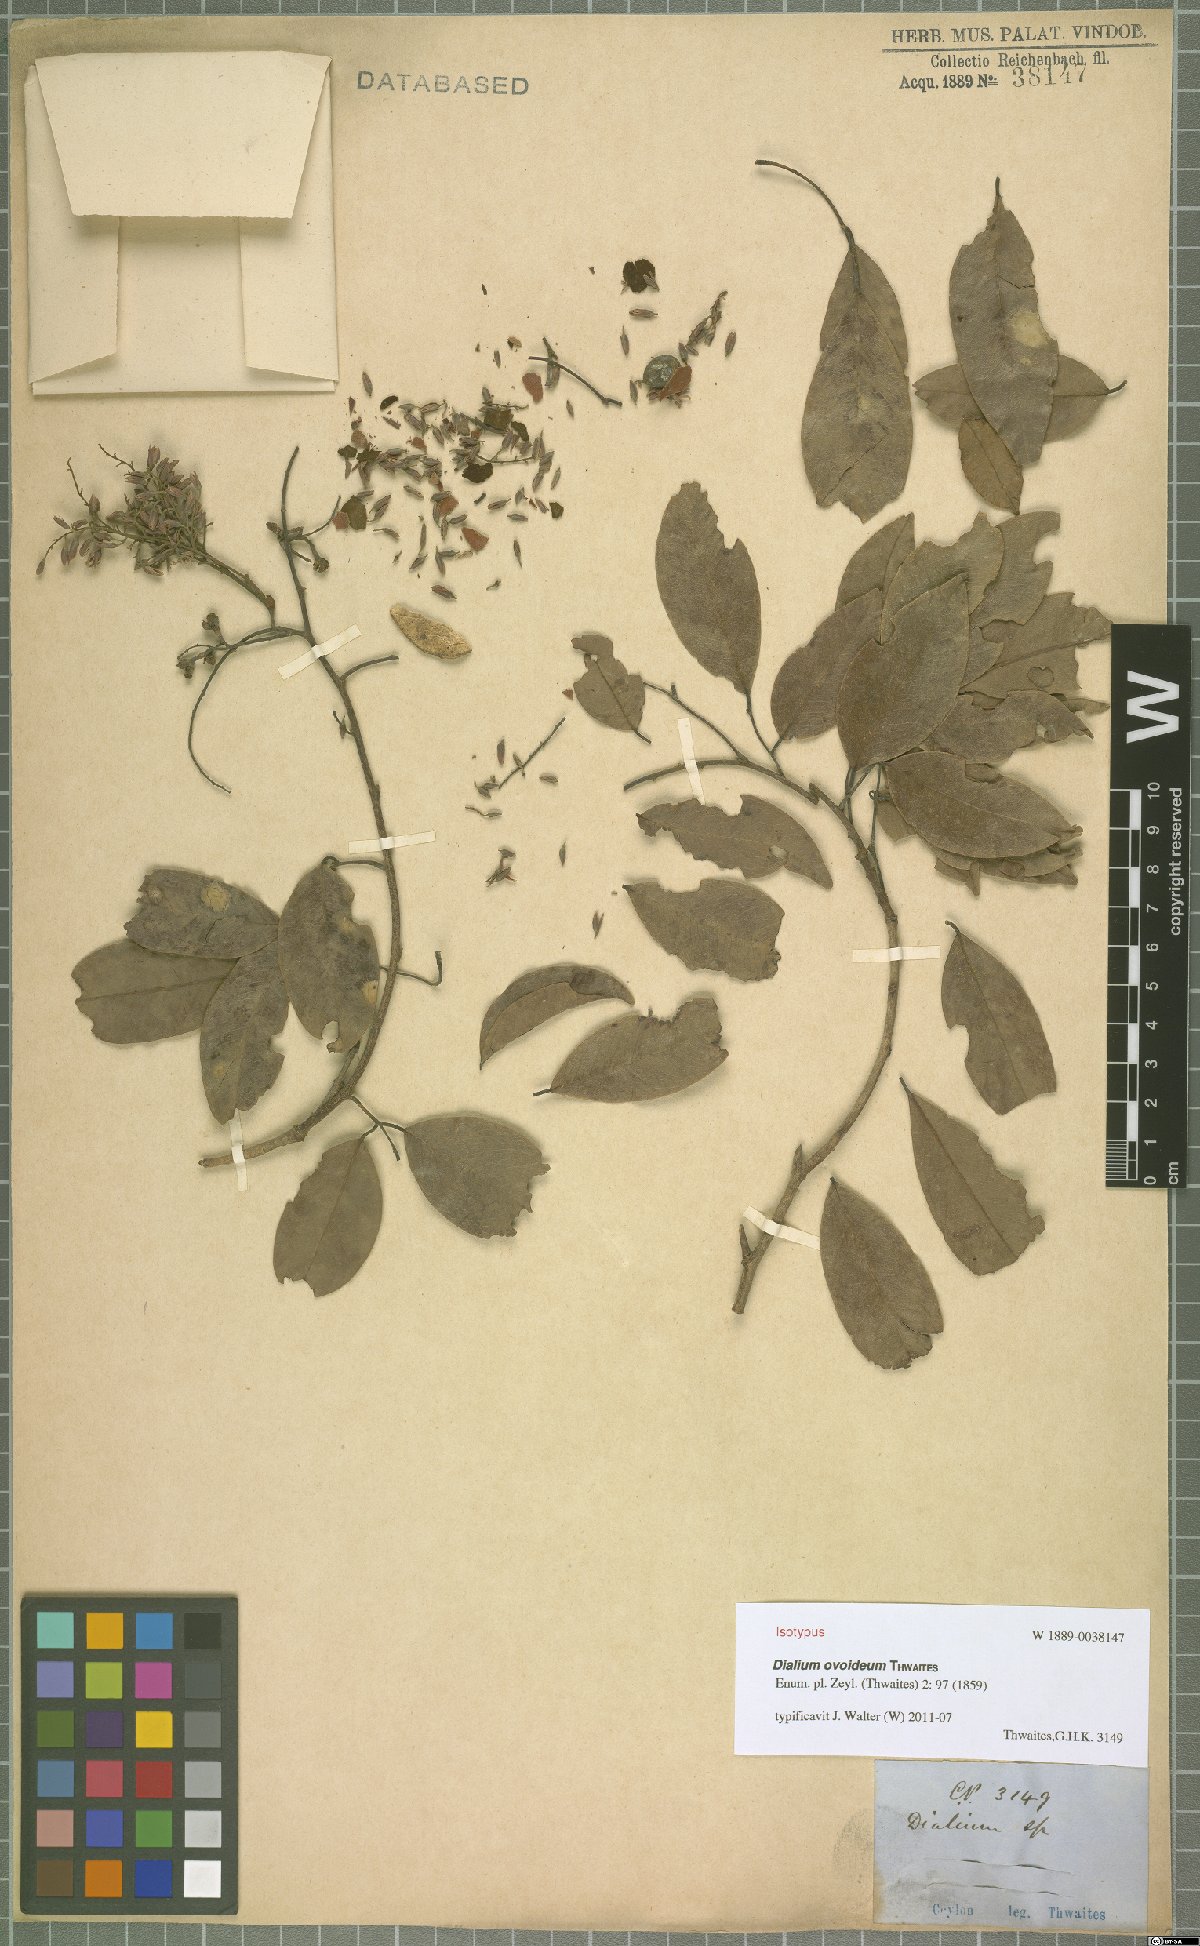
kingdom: Plantae
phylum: Tracheophyta
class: Magnoliopsida
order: Fabales
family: Fabaceae
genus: Dialium
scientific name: Dialium ovoideum
